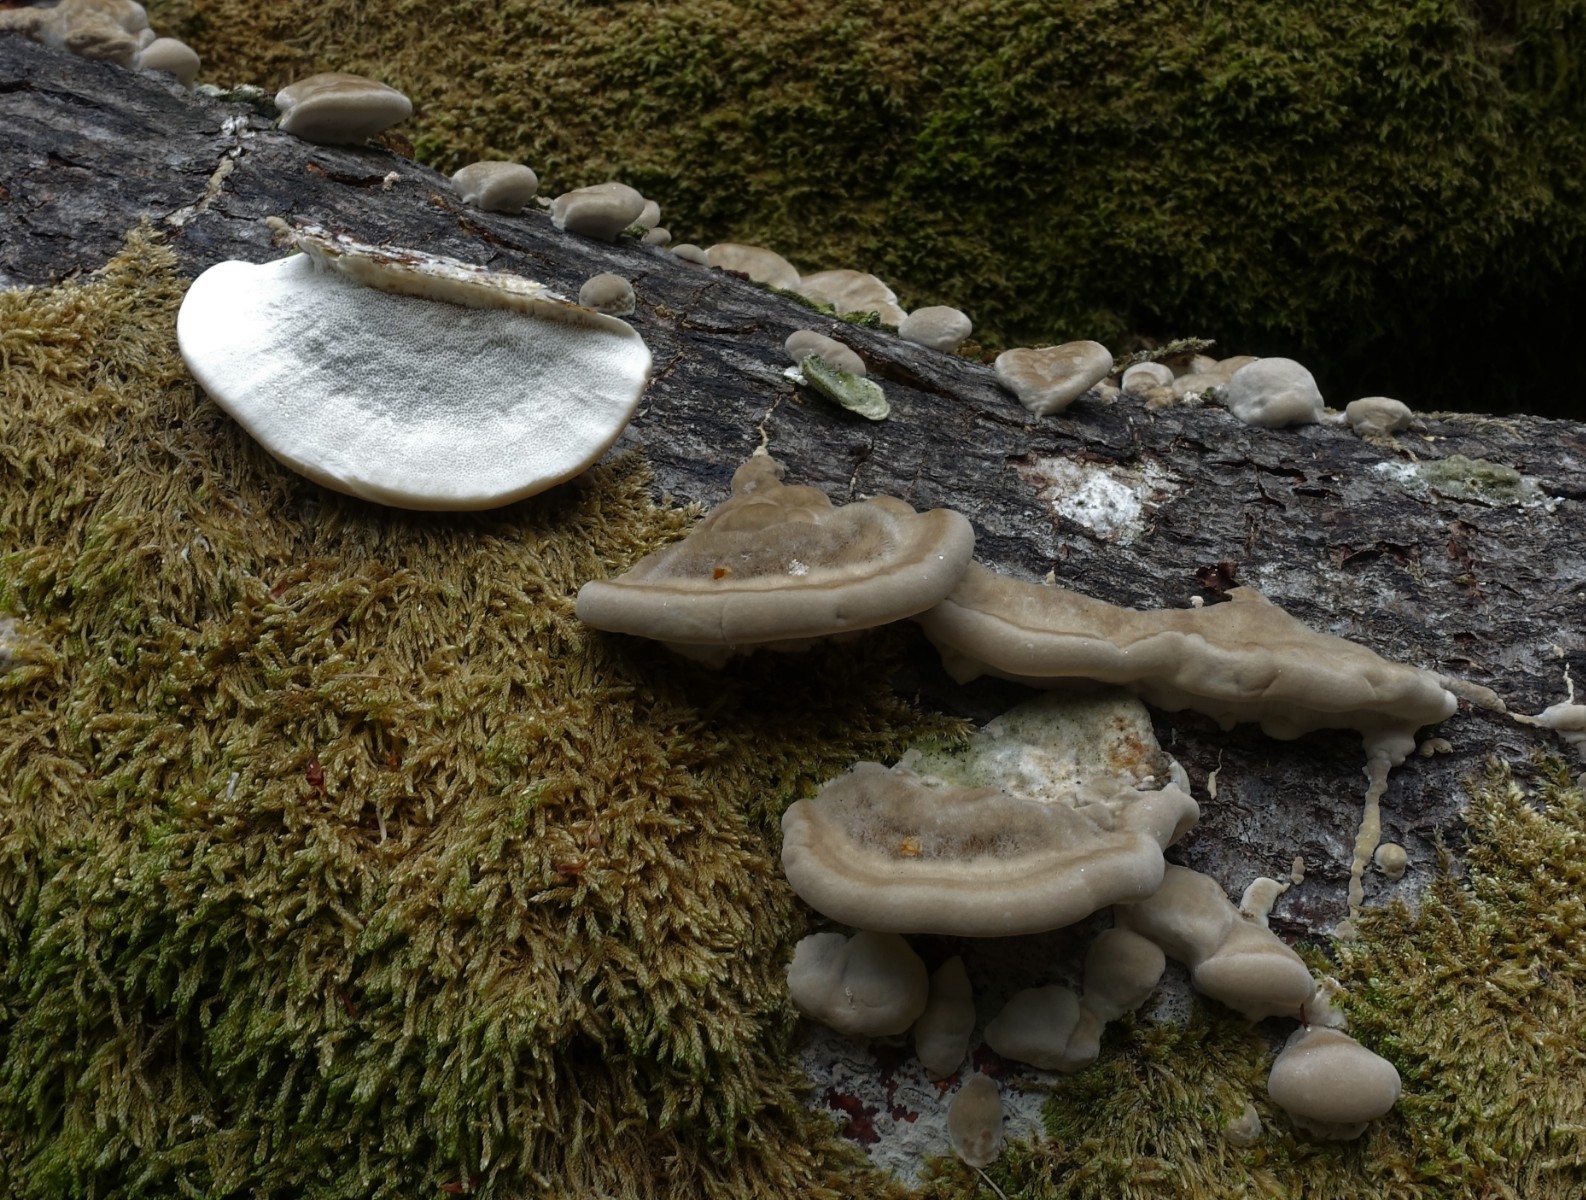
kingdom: Fungi
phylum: Basidiomycota
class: Agaricomycetes
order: Polyporales
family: Polyporaceae
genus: Trametes
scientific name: Trametes hirsuta
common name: håret læderporesvamp
